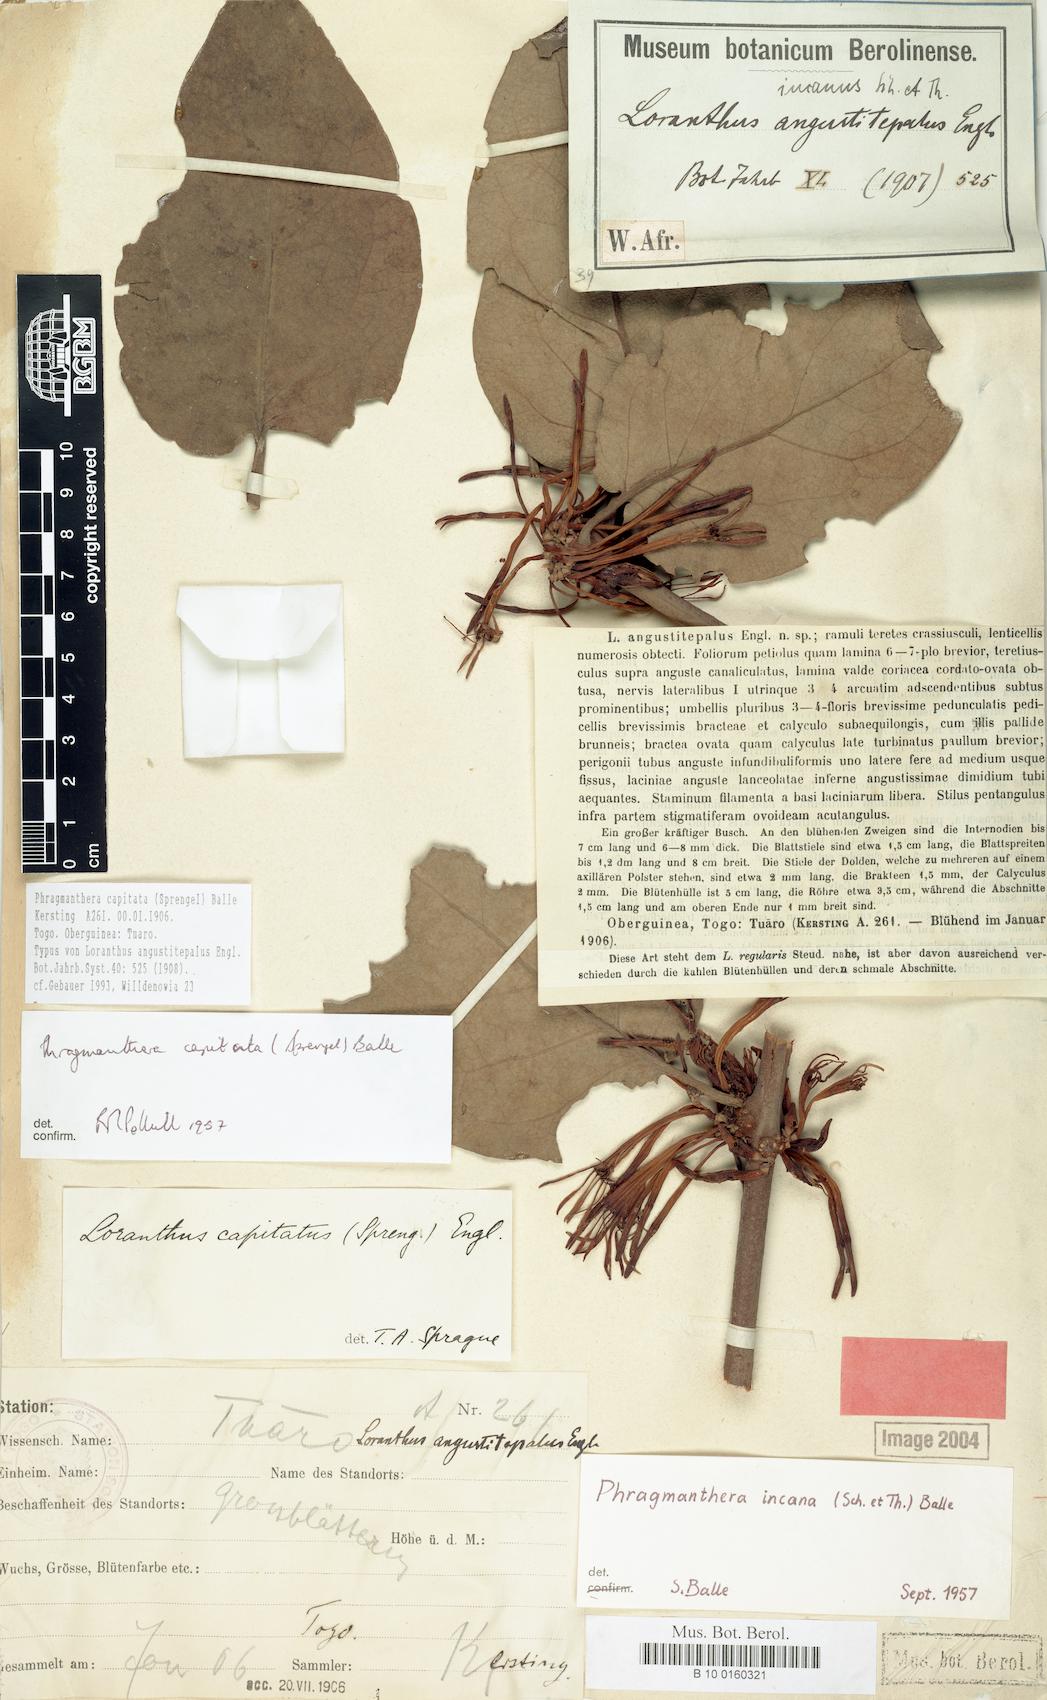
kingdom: Plantae
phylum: Tracheophyta
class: Magnoliopsida
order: Santalales
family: Loranthaceae
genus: Phragmanthera
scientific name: Phragmanthera capitata
